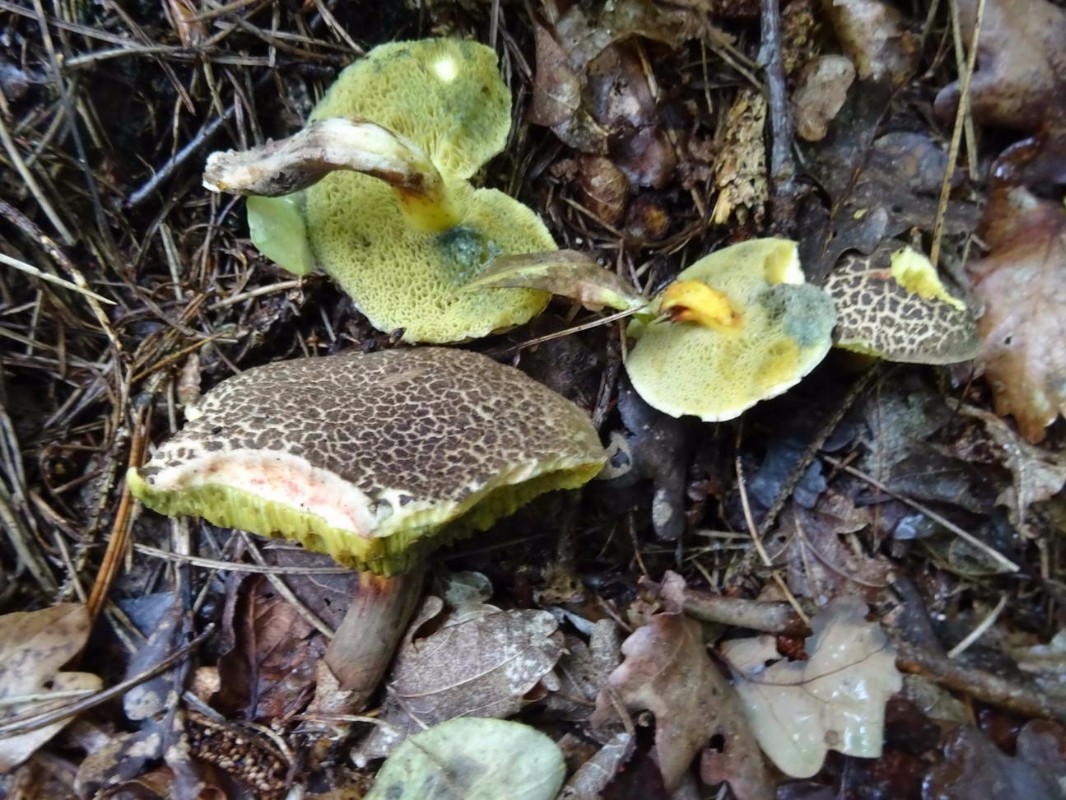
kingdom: Fungi
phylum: Basidiomycota
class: Agaricomycetes
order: Boletales
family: Boletaceae
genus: Xerocomellus
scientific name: Xerocomellus porosporus
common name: hvidsprukken rørhat
